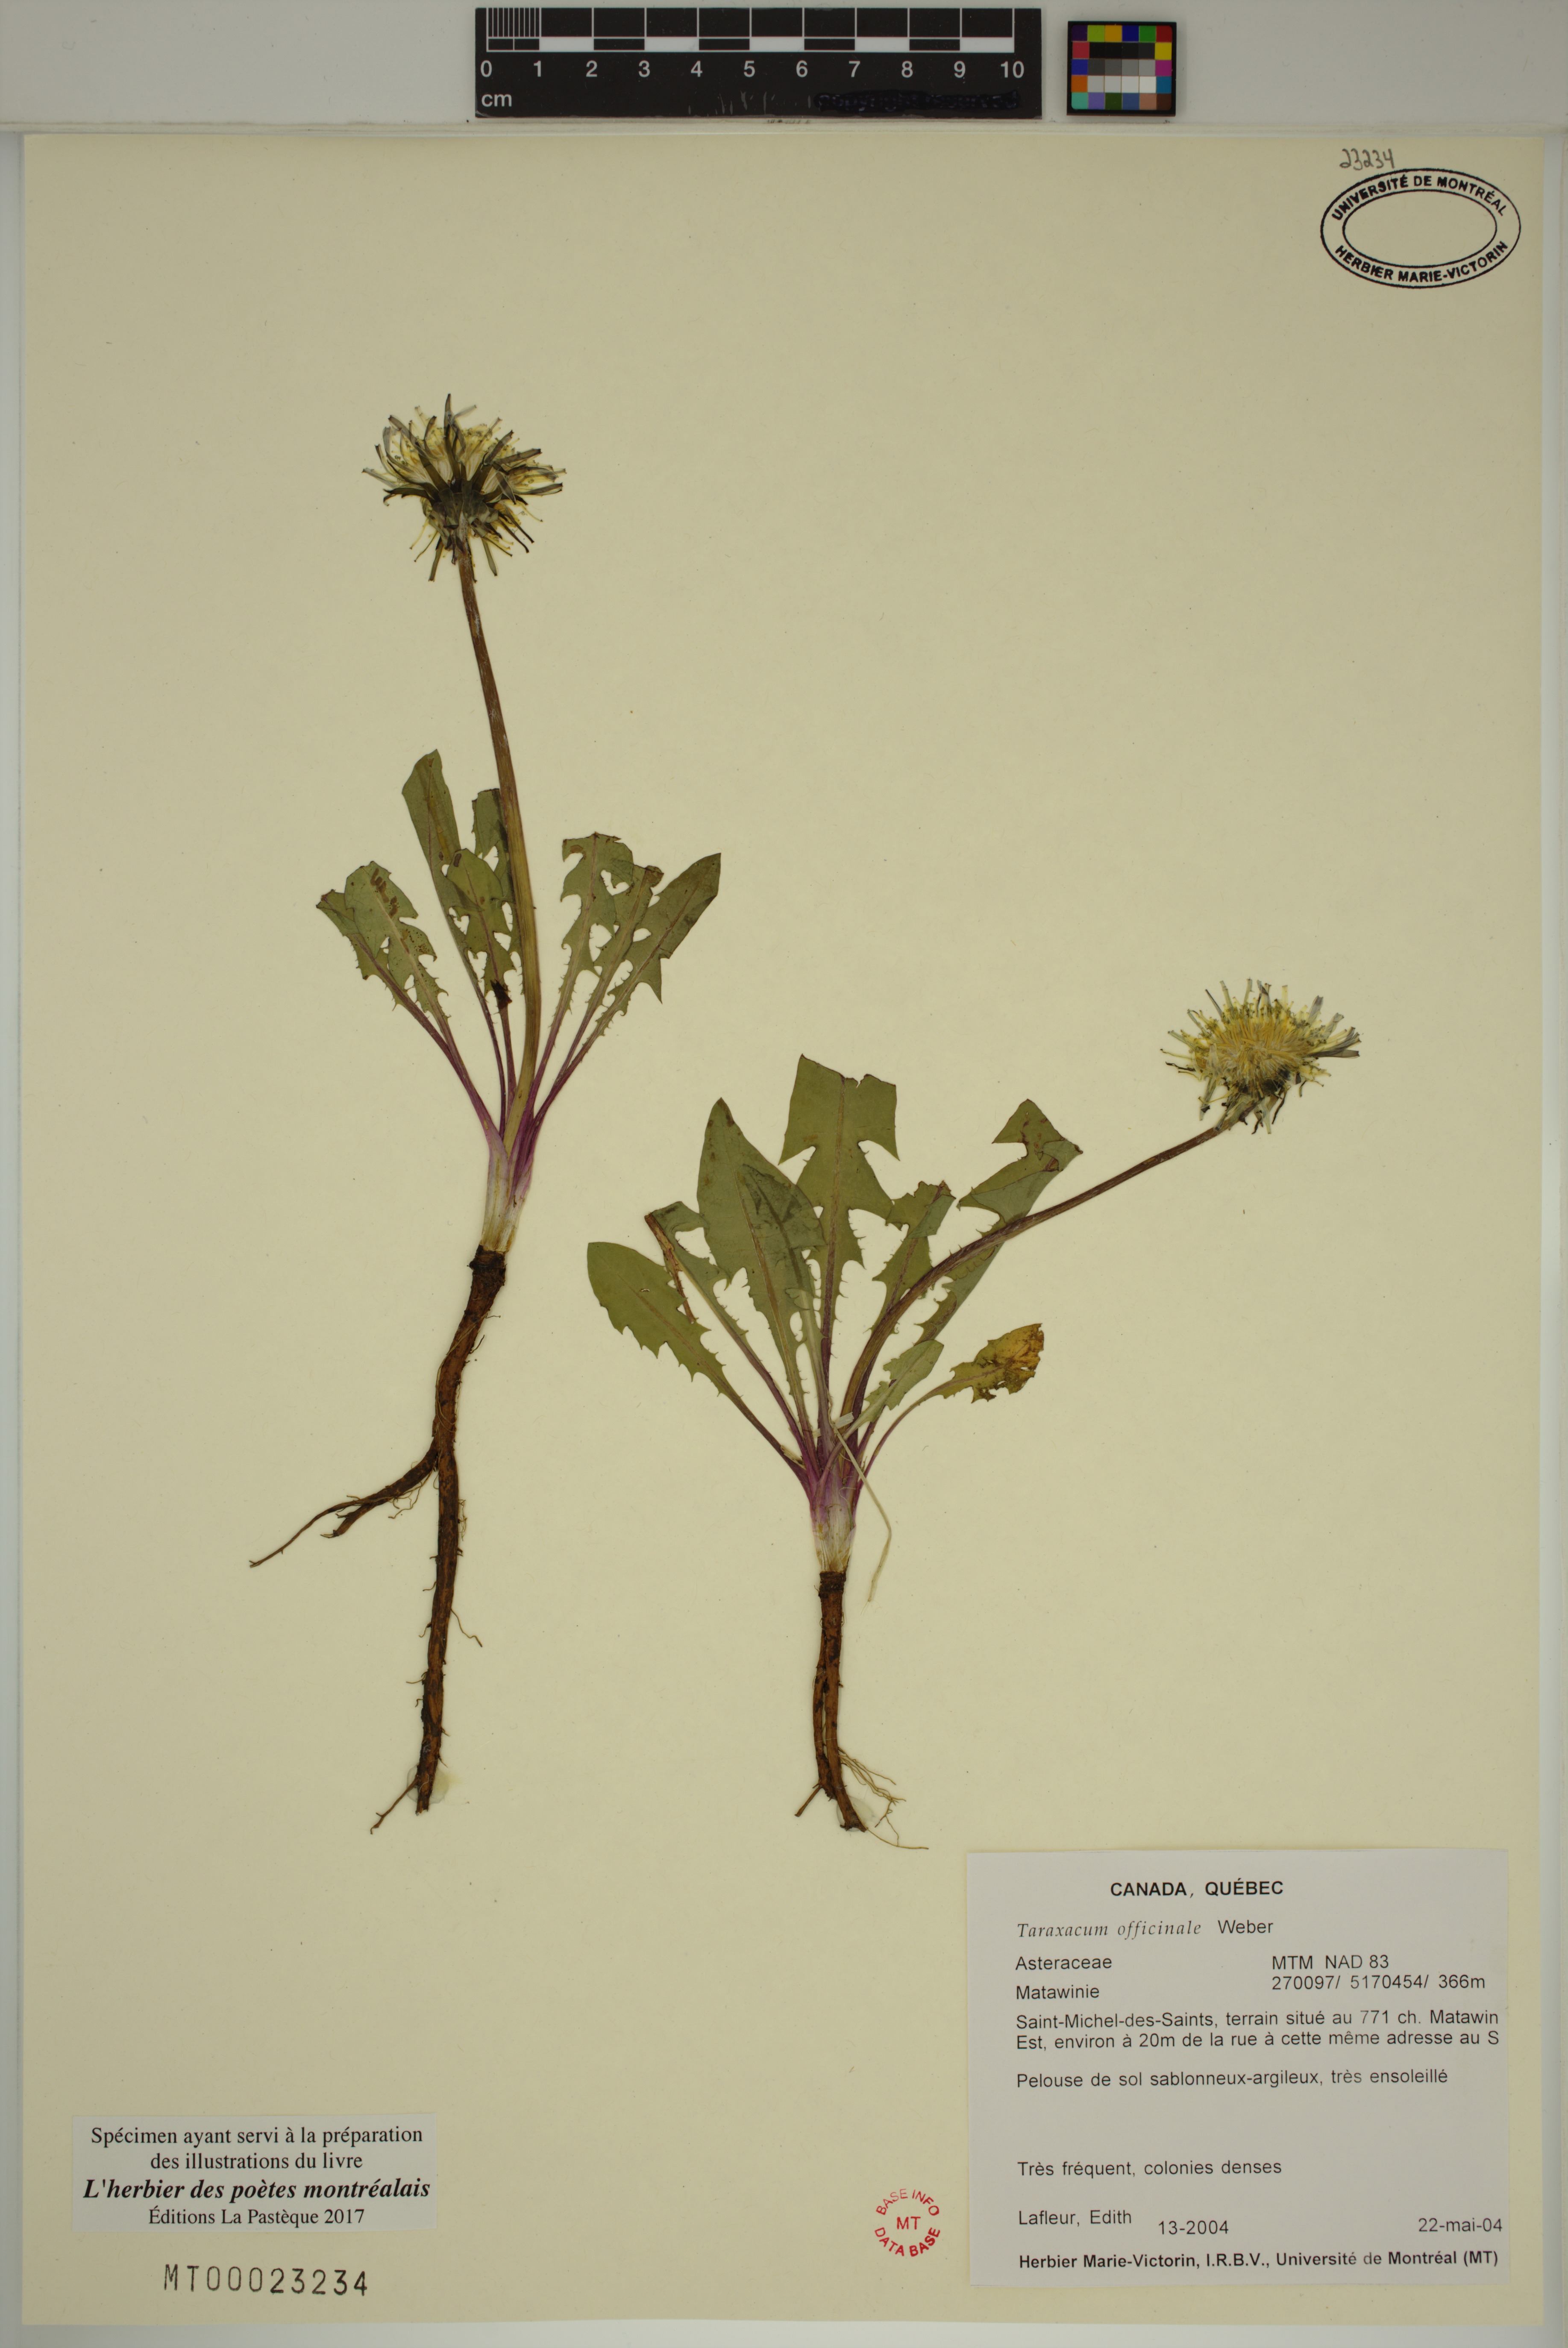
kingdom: Plantae
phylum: Tracheophyta
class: Magnoliopsida
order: Asterales
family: Asteraceae
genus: Taraxacum
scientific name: Taraxacum officinale
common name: Common dandelion
